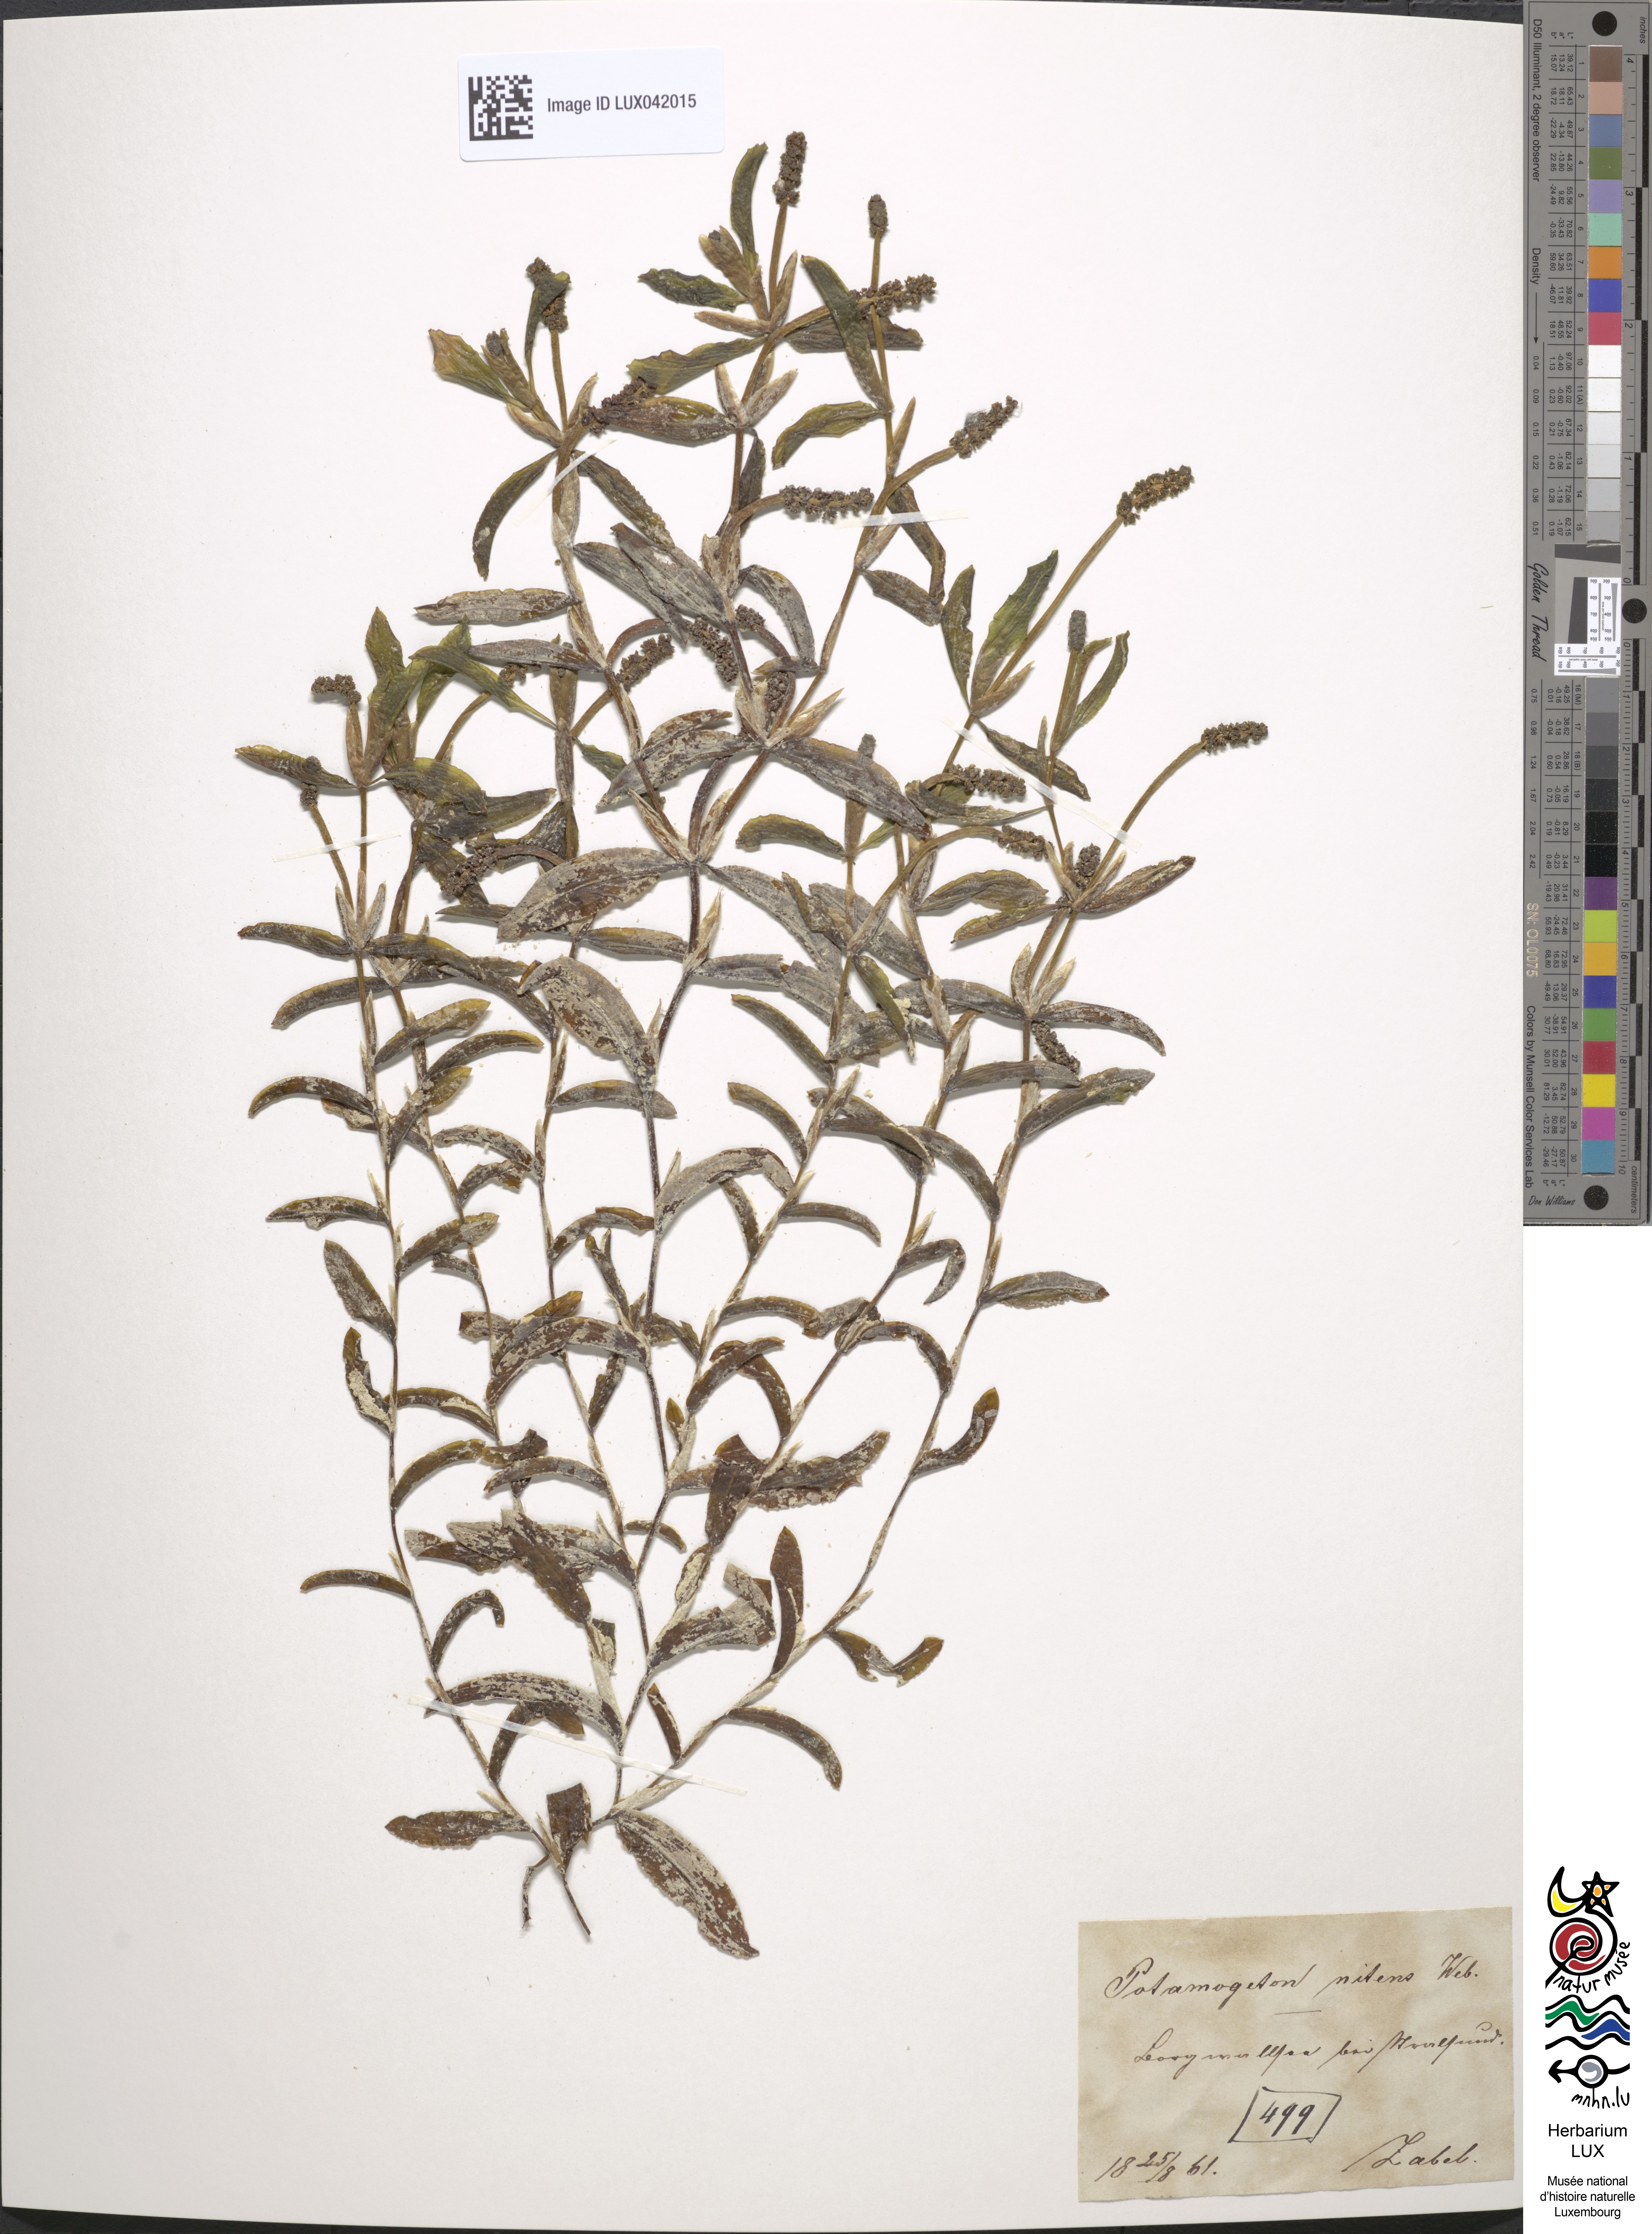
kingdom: Plantae
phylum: Tracheophyta
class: Liliopsida
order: Alismatales
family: Potamogetonaceae
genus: Potamogeton
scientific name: Potamogeton nitens
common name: Pondweed
